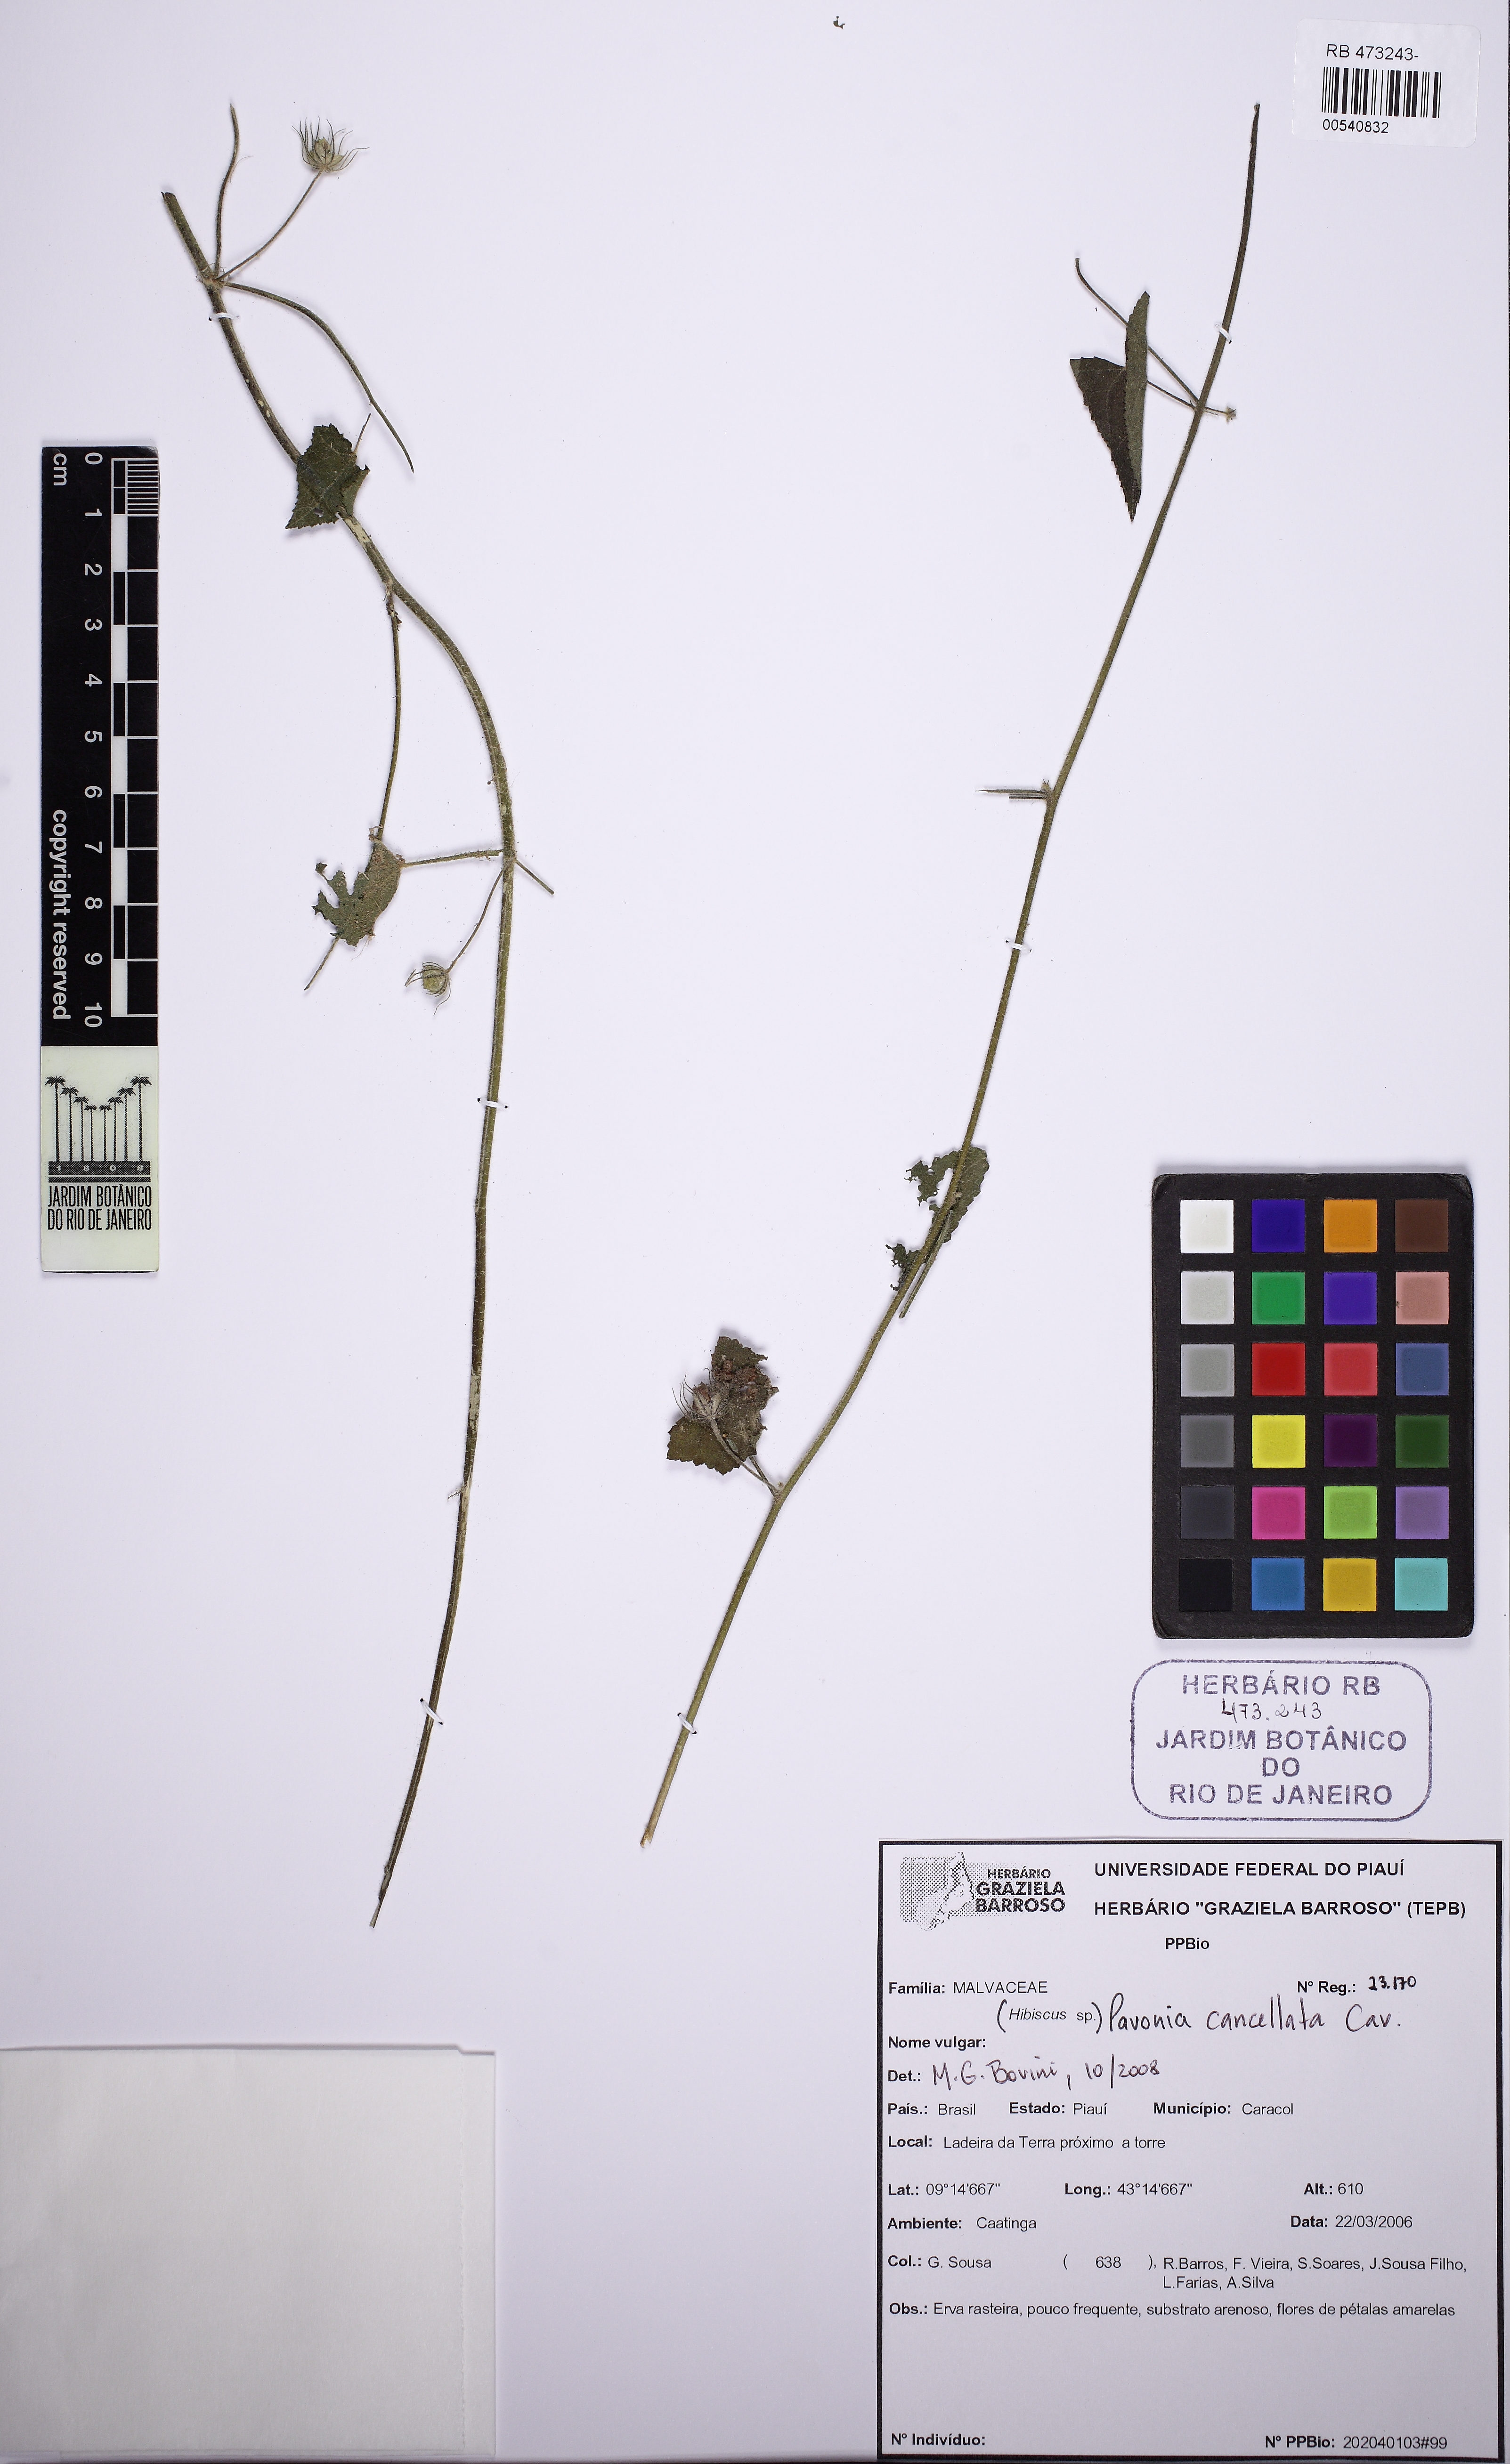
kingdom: Plantae
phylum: Tracheophyta
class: Magnoliopsida
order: Malvales
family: Malvaceae
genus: Pavonia
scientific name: Pavonia cancellata
